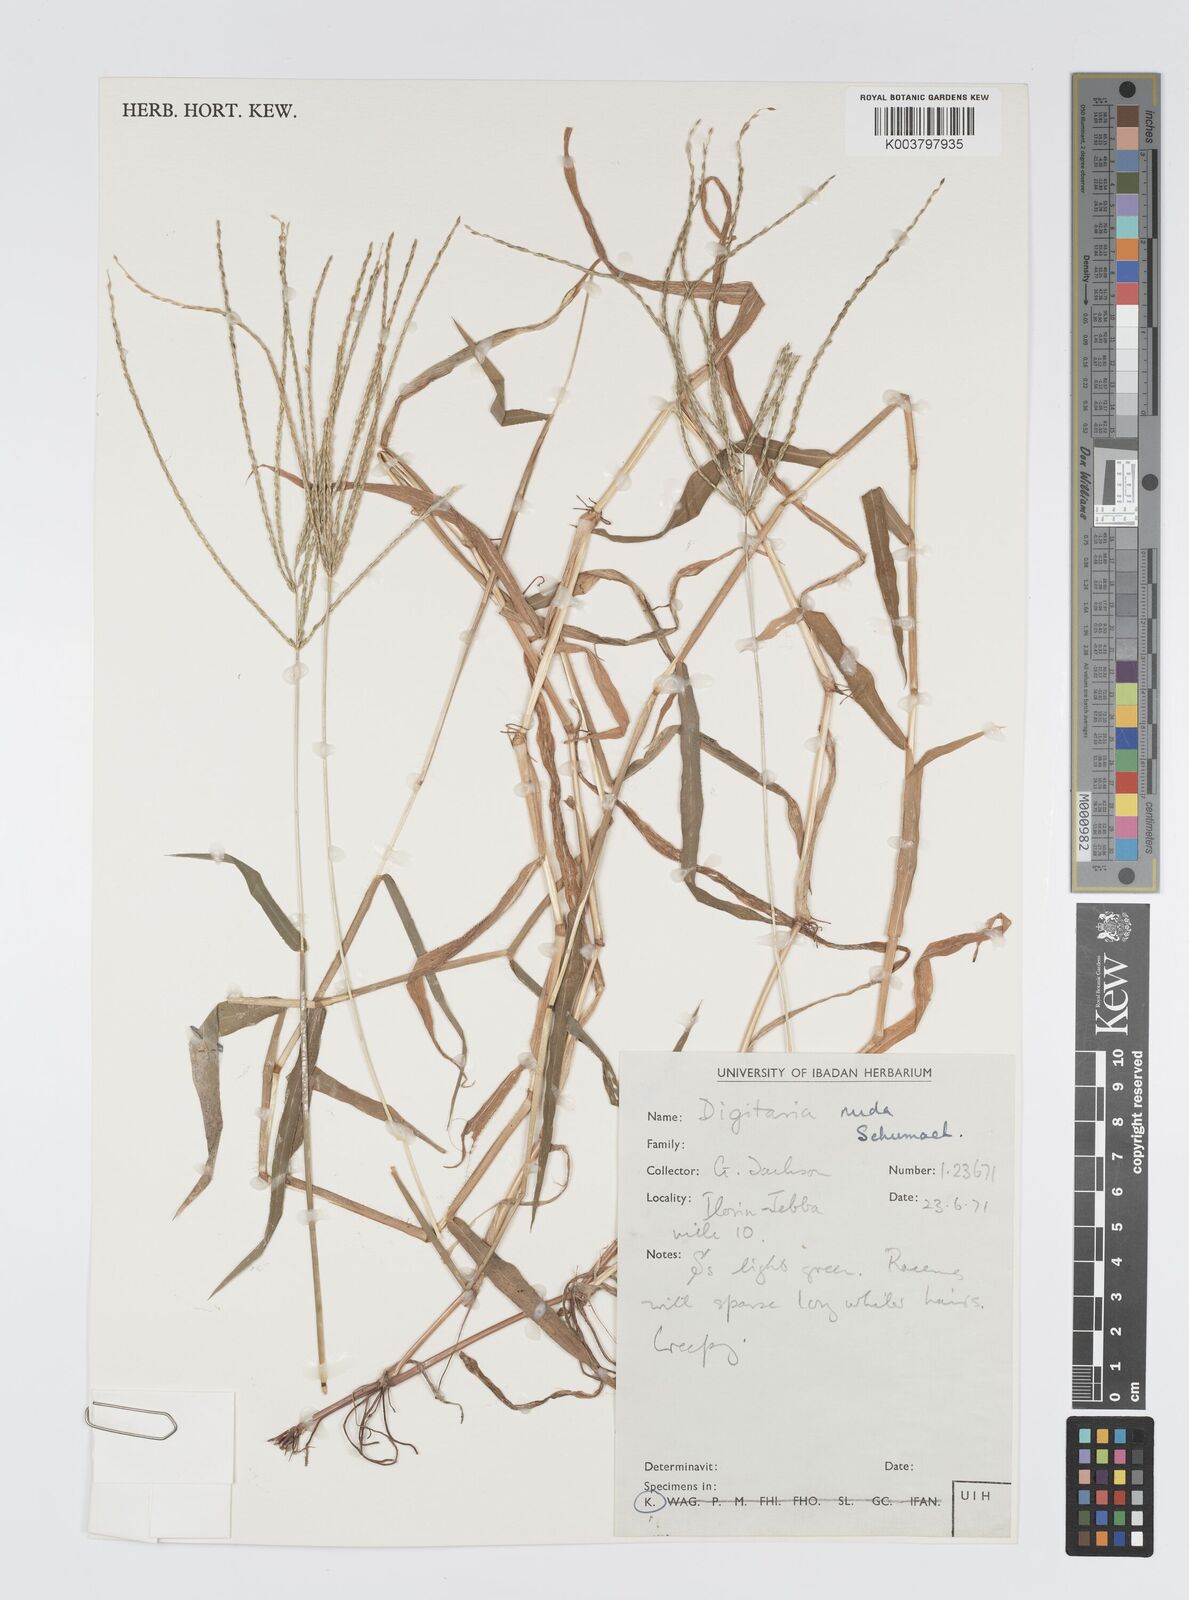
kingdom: Plantae
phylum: Tracheophyta
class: Liliopsida
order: Poales
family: Poaceae
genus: Digitaria
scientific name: Digitaria nuda
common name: Naked crabgrass
